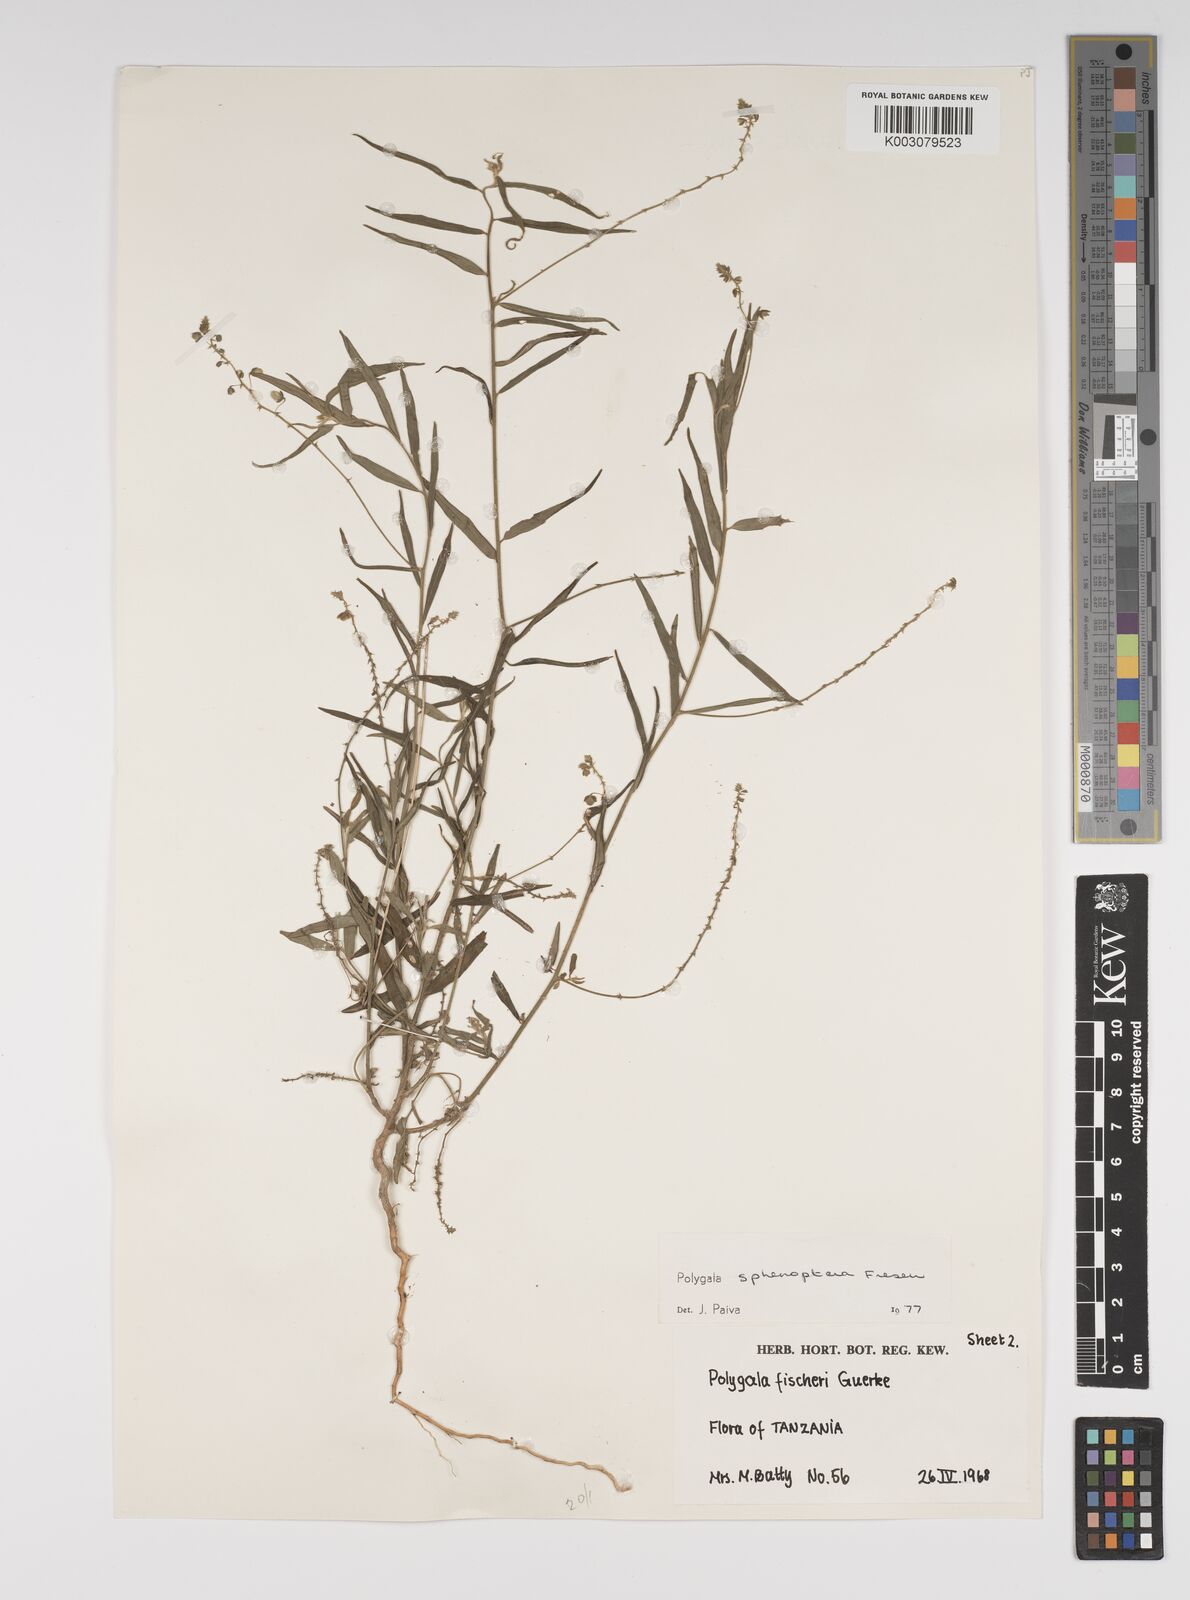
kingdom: Plantae
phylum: Tracheophyta
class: Magnoliopsida
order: Fabales
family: Polygalaceae
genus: Polygala
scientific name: Polygala sphenoptera
